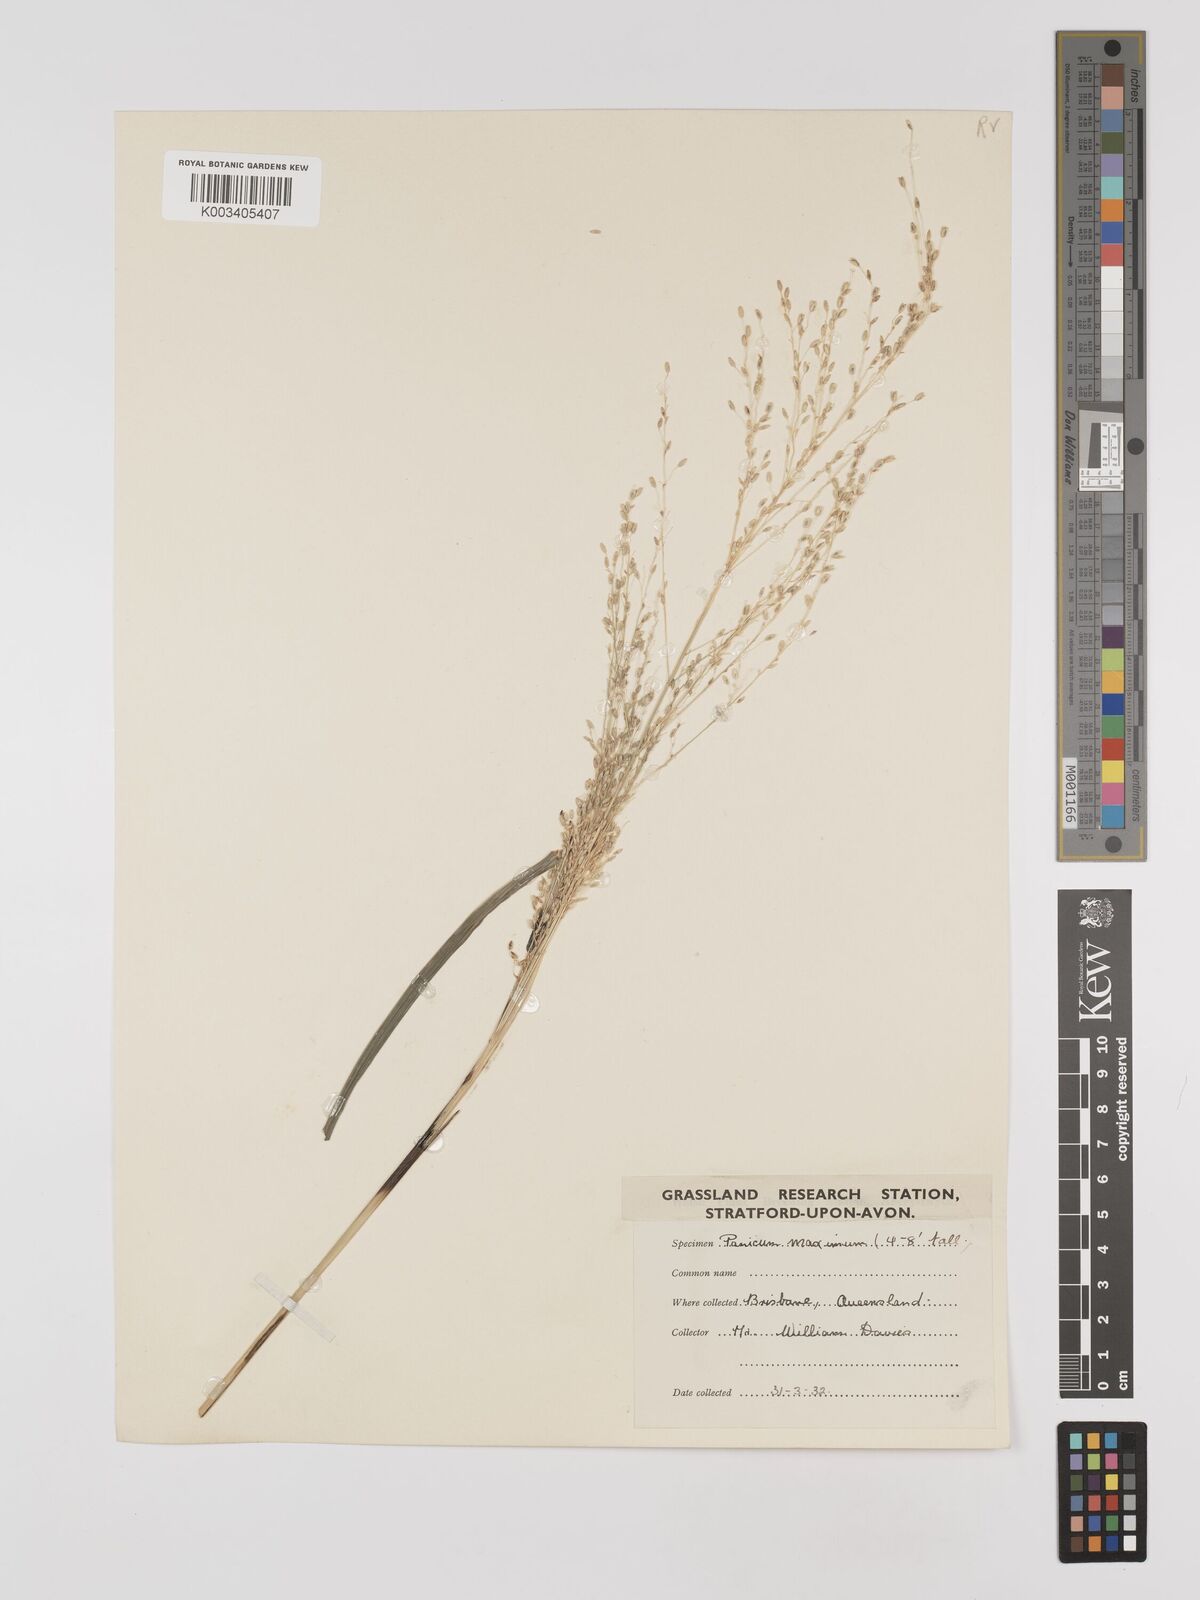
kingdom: Plantae
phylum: Tracheophyta
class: Liliopsida
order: Poales
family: Poaceae
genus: Megathyrsus
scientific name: Megathyrsus maximus
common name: Guineagrass
